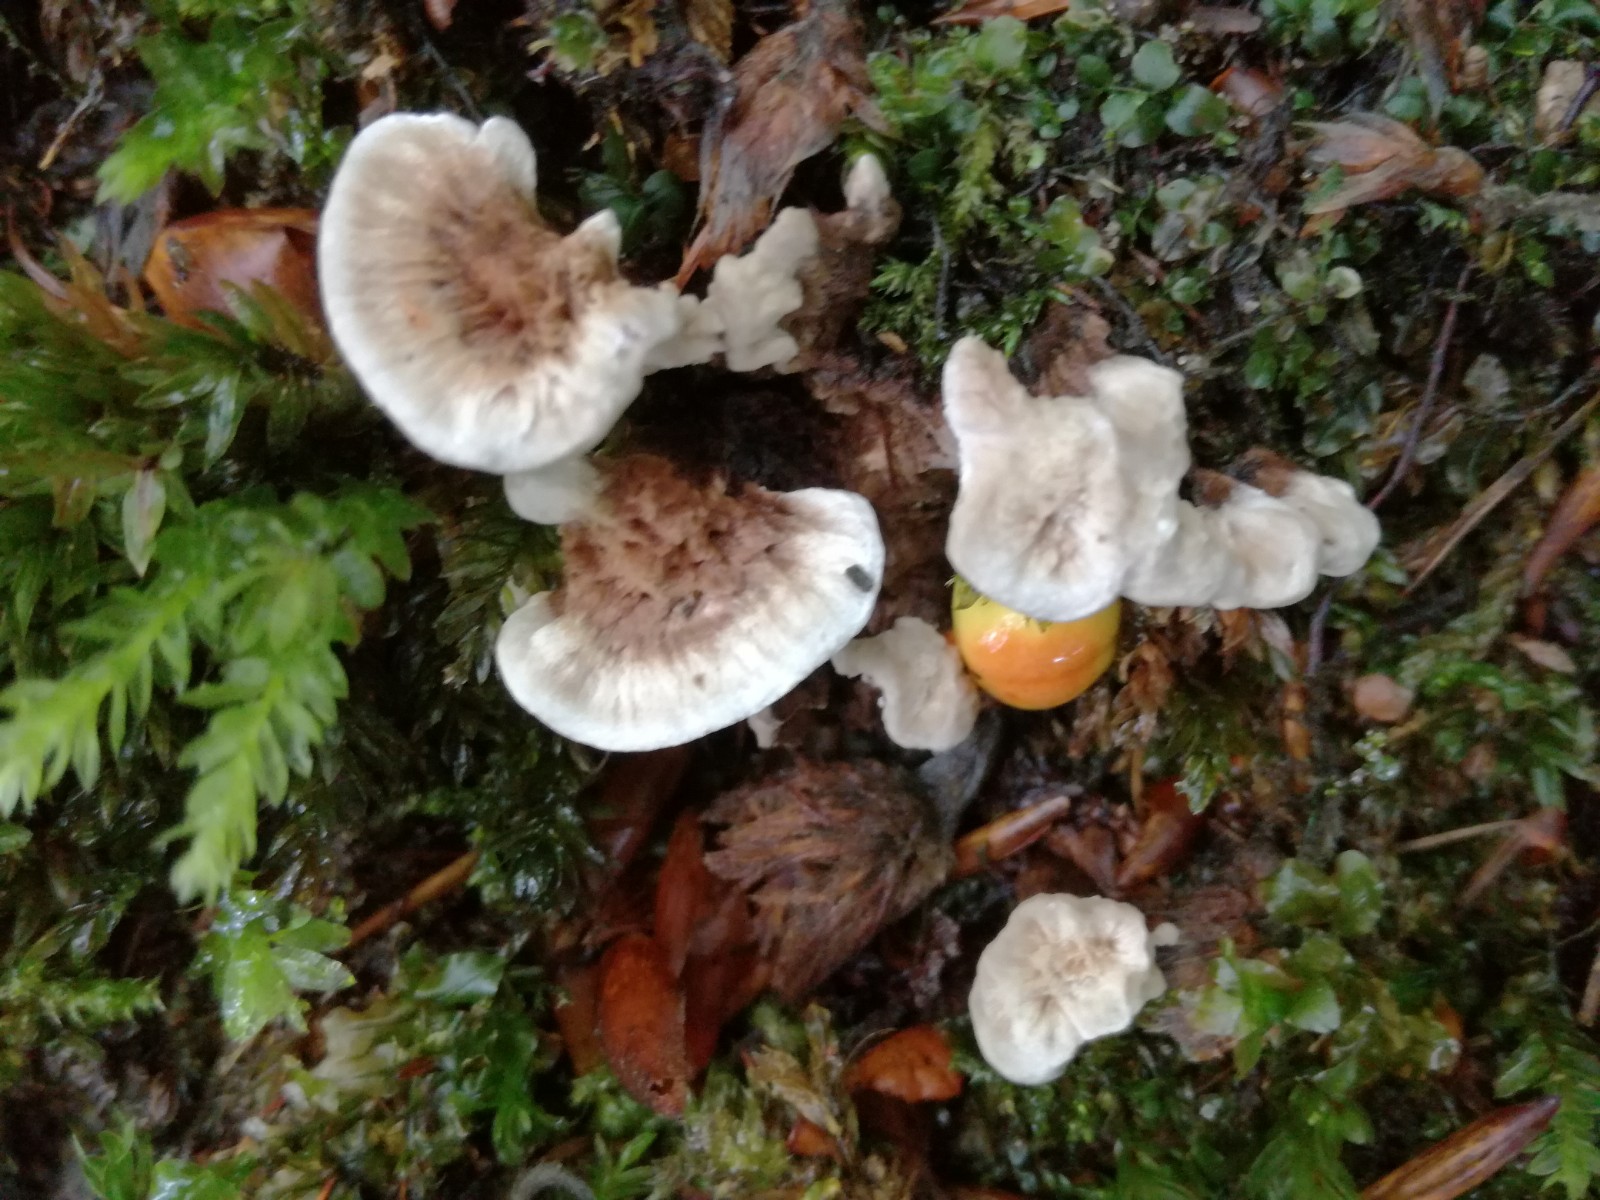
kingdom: Fungi
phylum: Basidiomycota
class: Agaricomycetes
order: Thelephorales
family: Thelephoraceae
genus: Phellodon
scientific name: Phellodon confluens
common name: pjaltet duftpigsvamp
